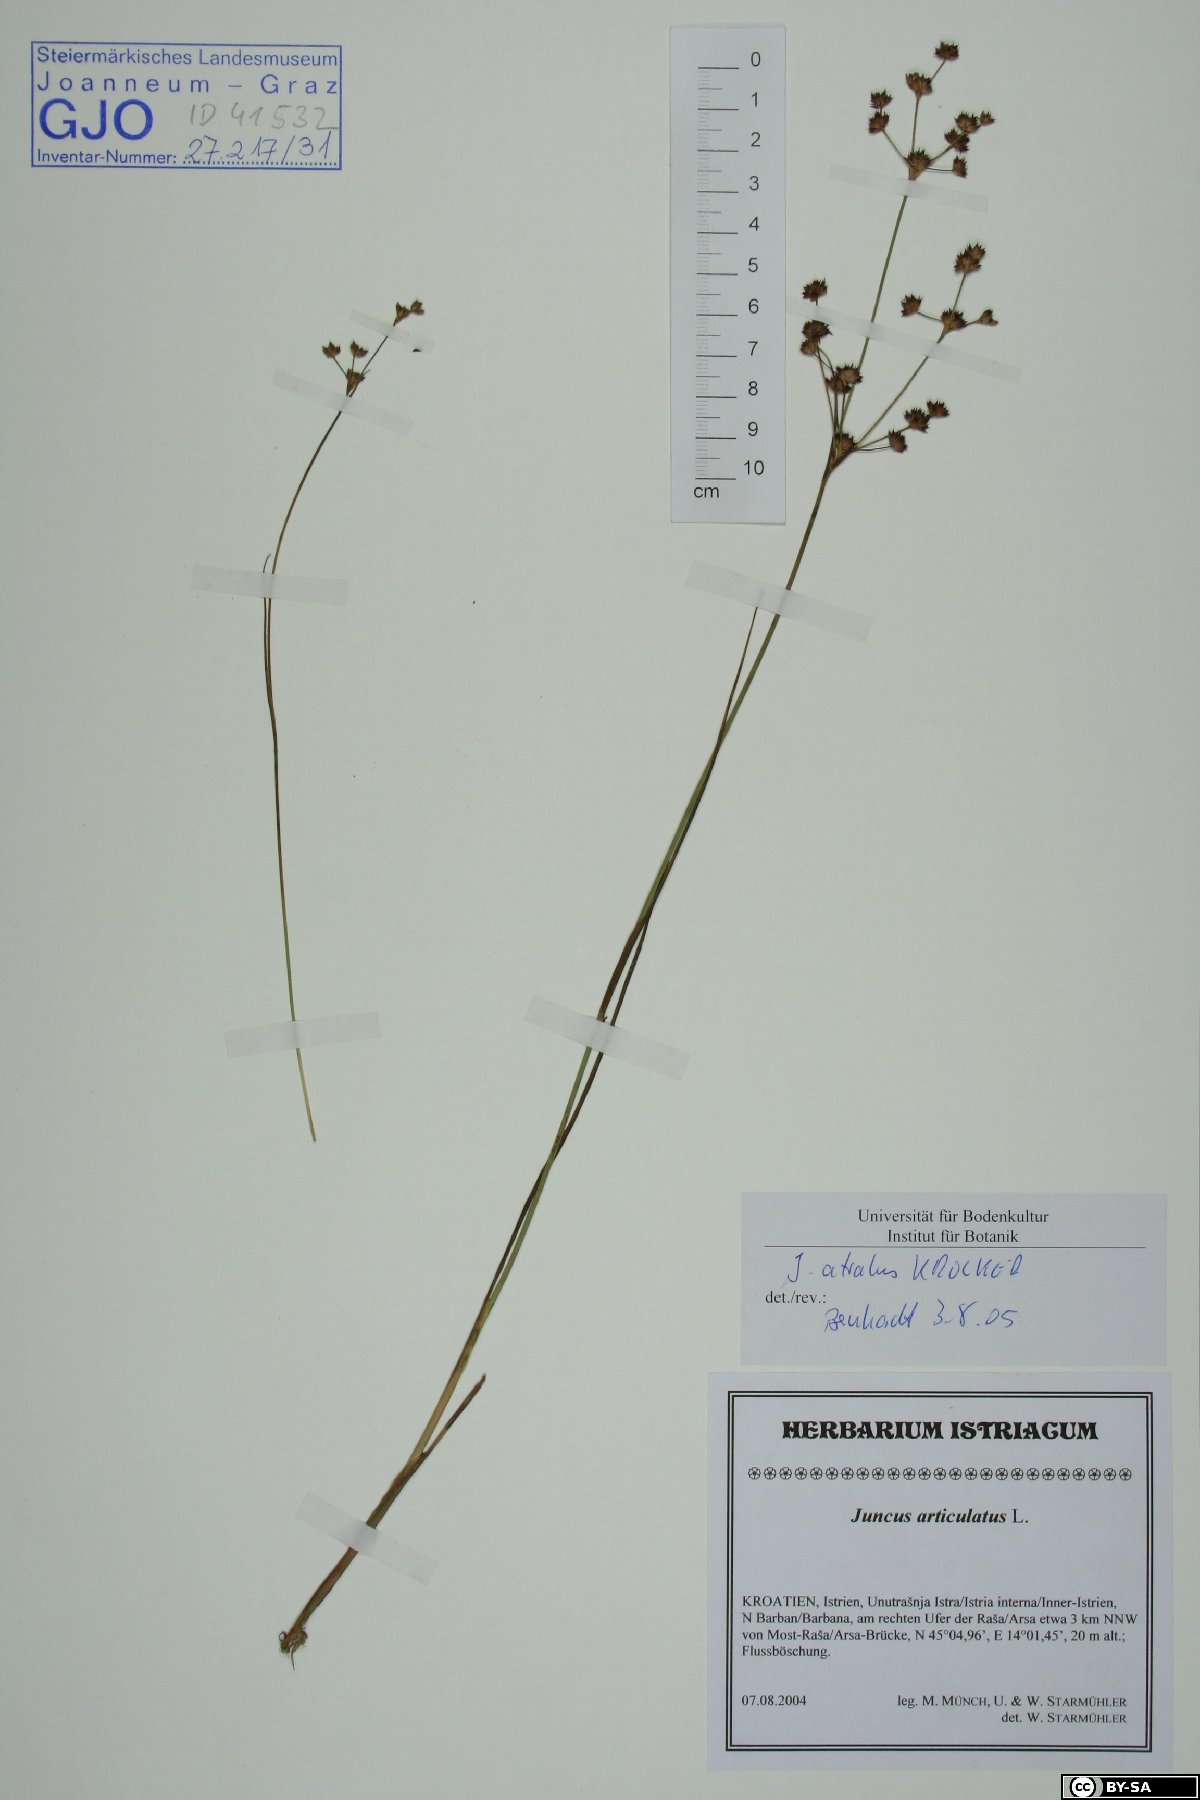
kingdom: Plantae
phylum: Tracheophyta
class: Liliopsida
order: Poales
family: Juncaceae
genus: Juncus
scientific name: Juncus atratus
